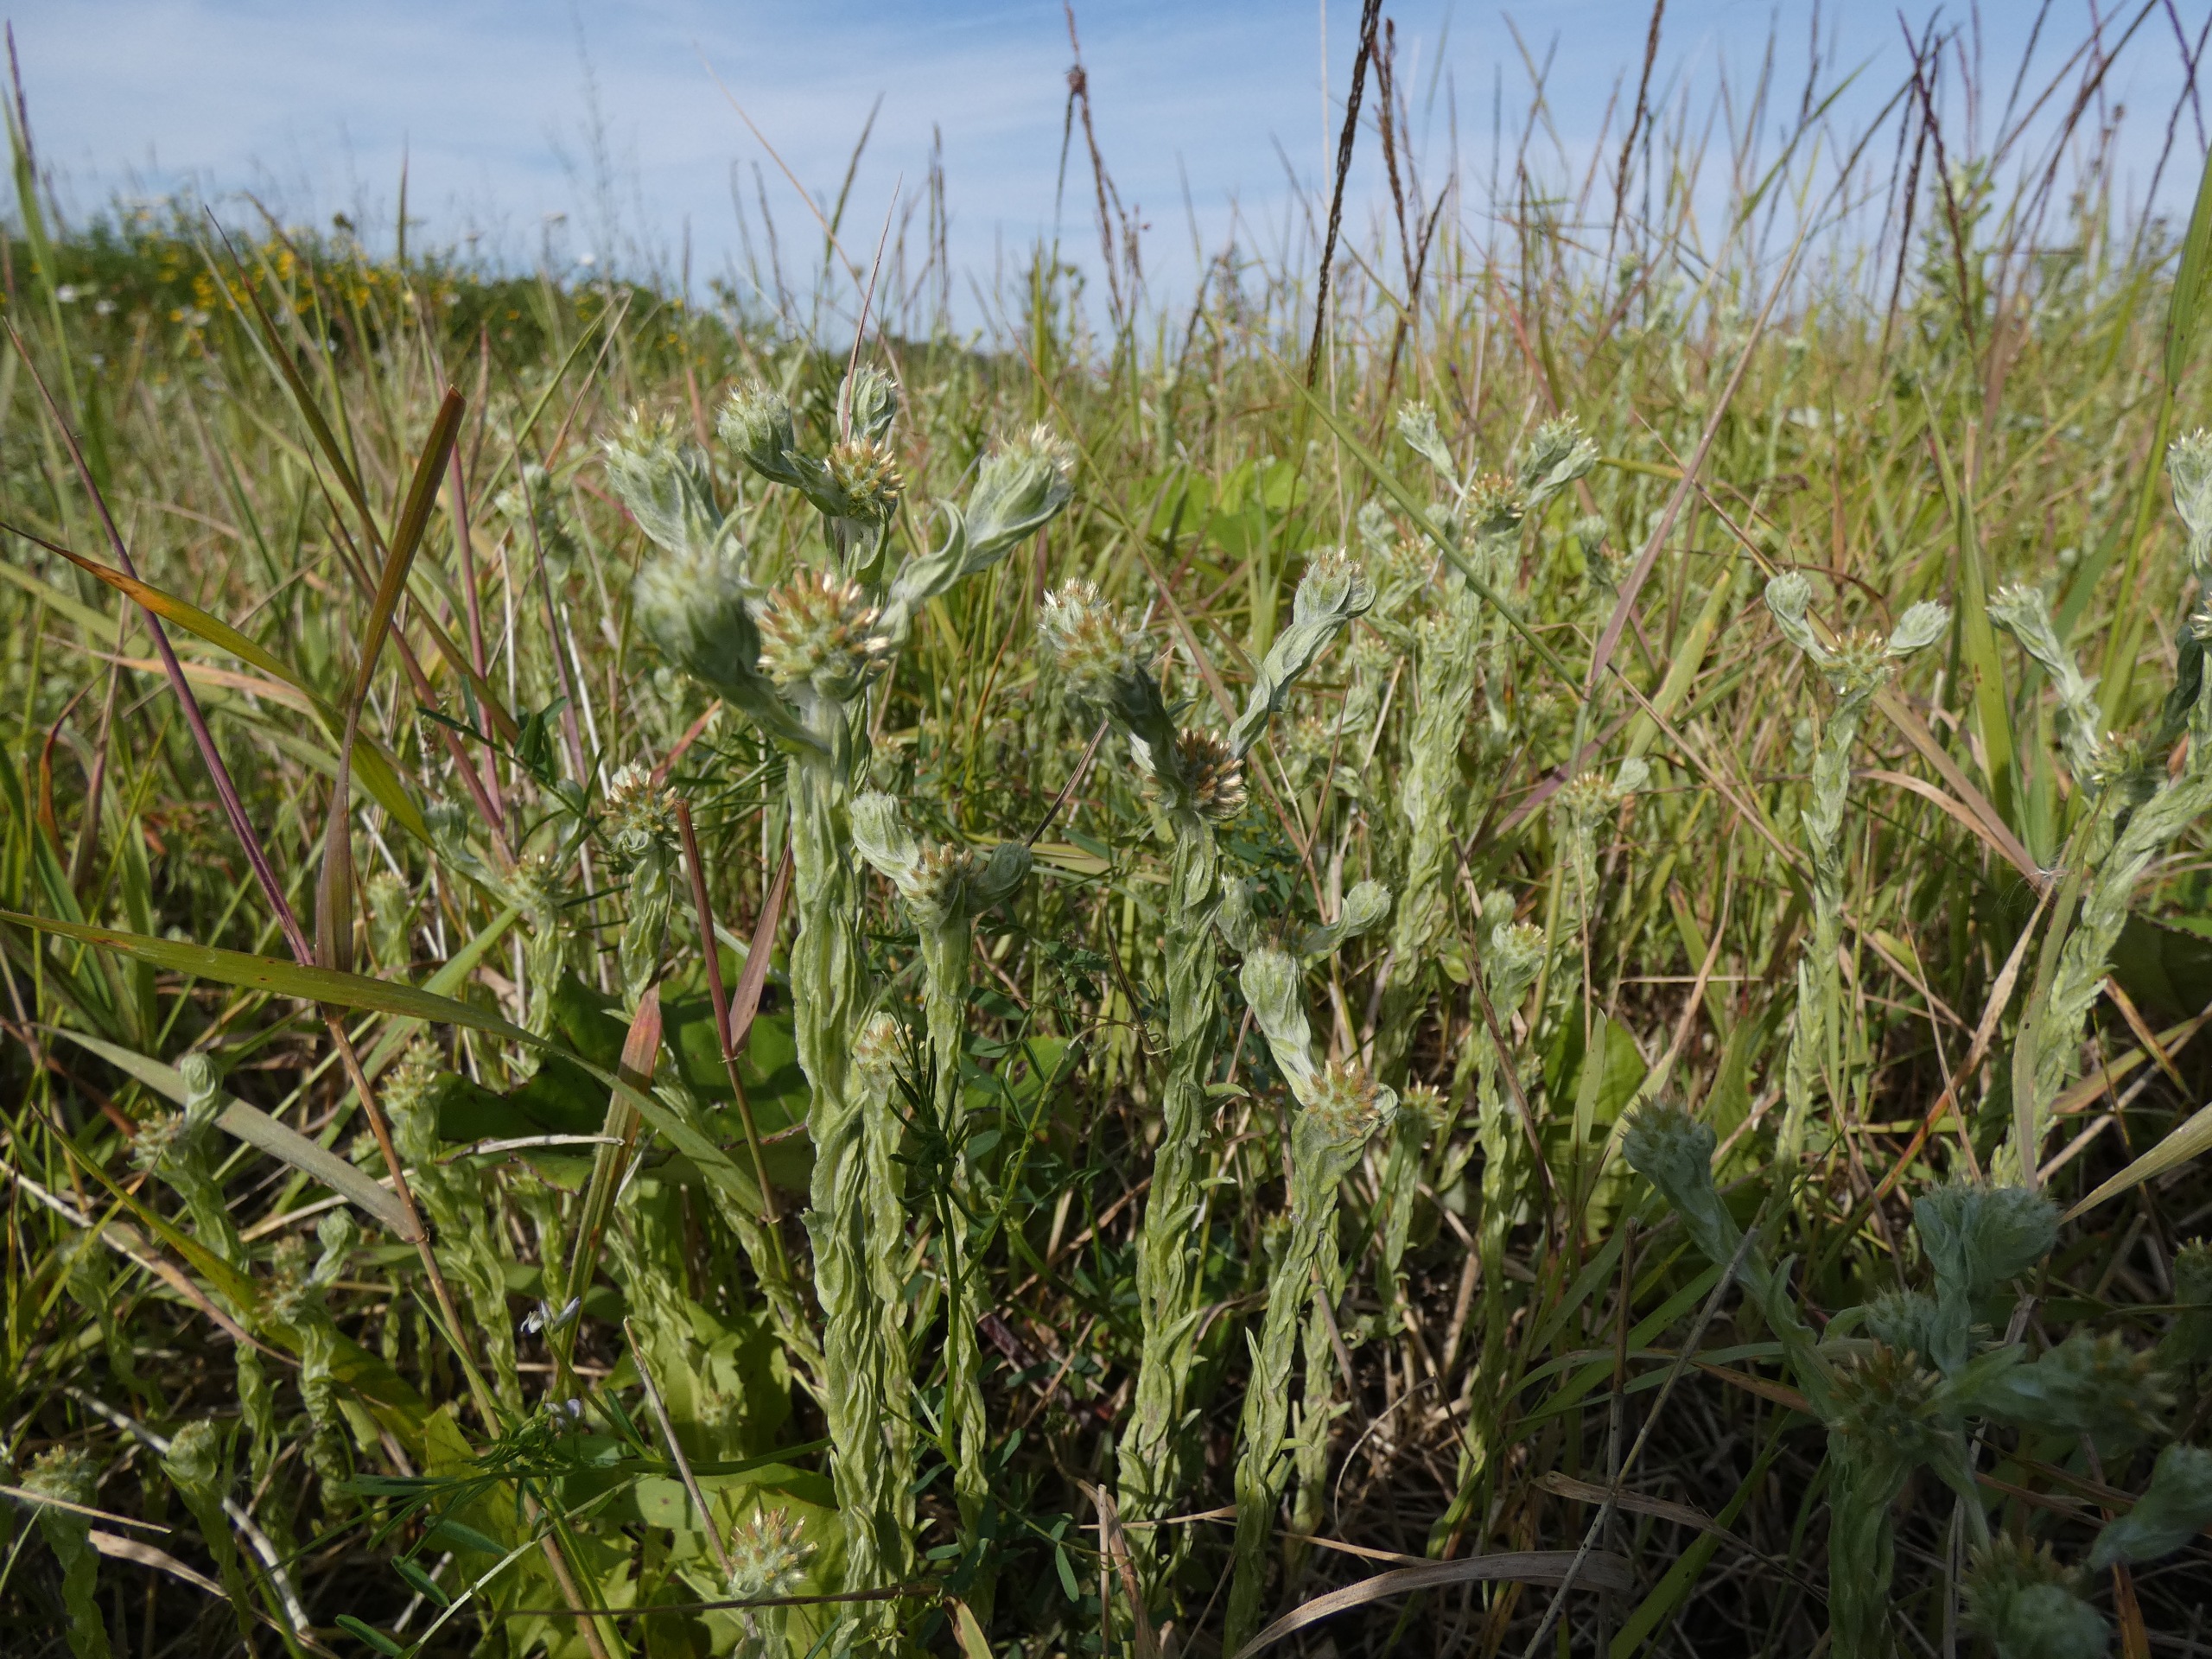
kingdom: Plantae
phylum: Tracheophyta
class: Magnoliopsida
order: Asterales
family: Asteraceae
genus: Filago
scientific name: Filago germanica
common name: Kugle-museurt
